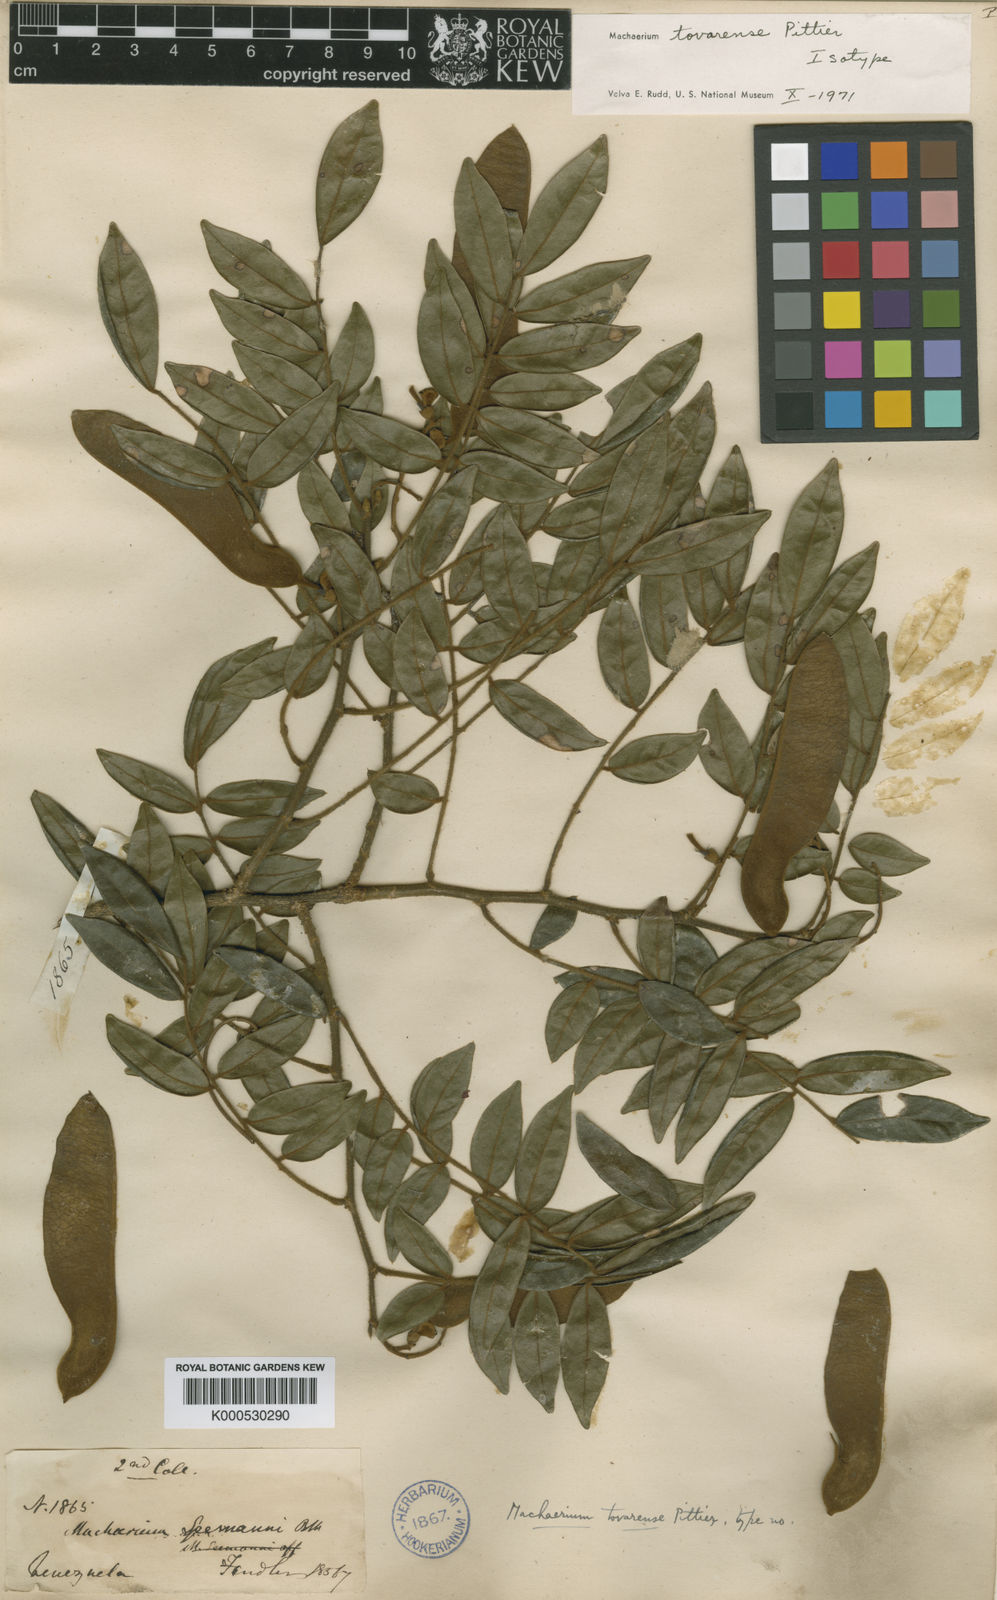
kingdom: Plantae
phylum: Tracheophyta
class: Magnoliopsida
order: Fabales
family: Fabaceae
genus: Machaerium
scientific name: Machaerium tovarense
